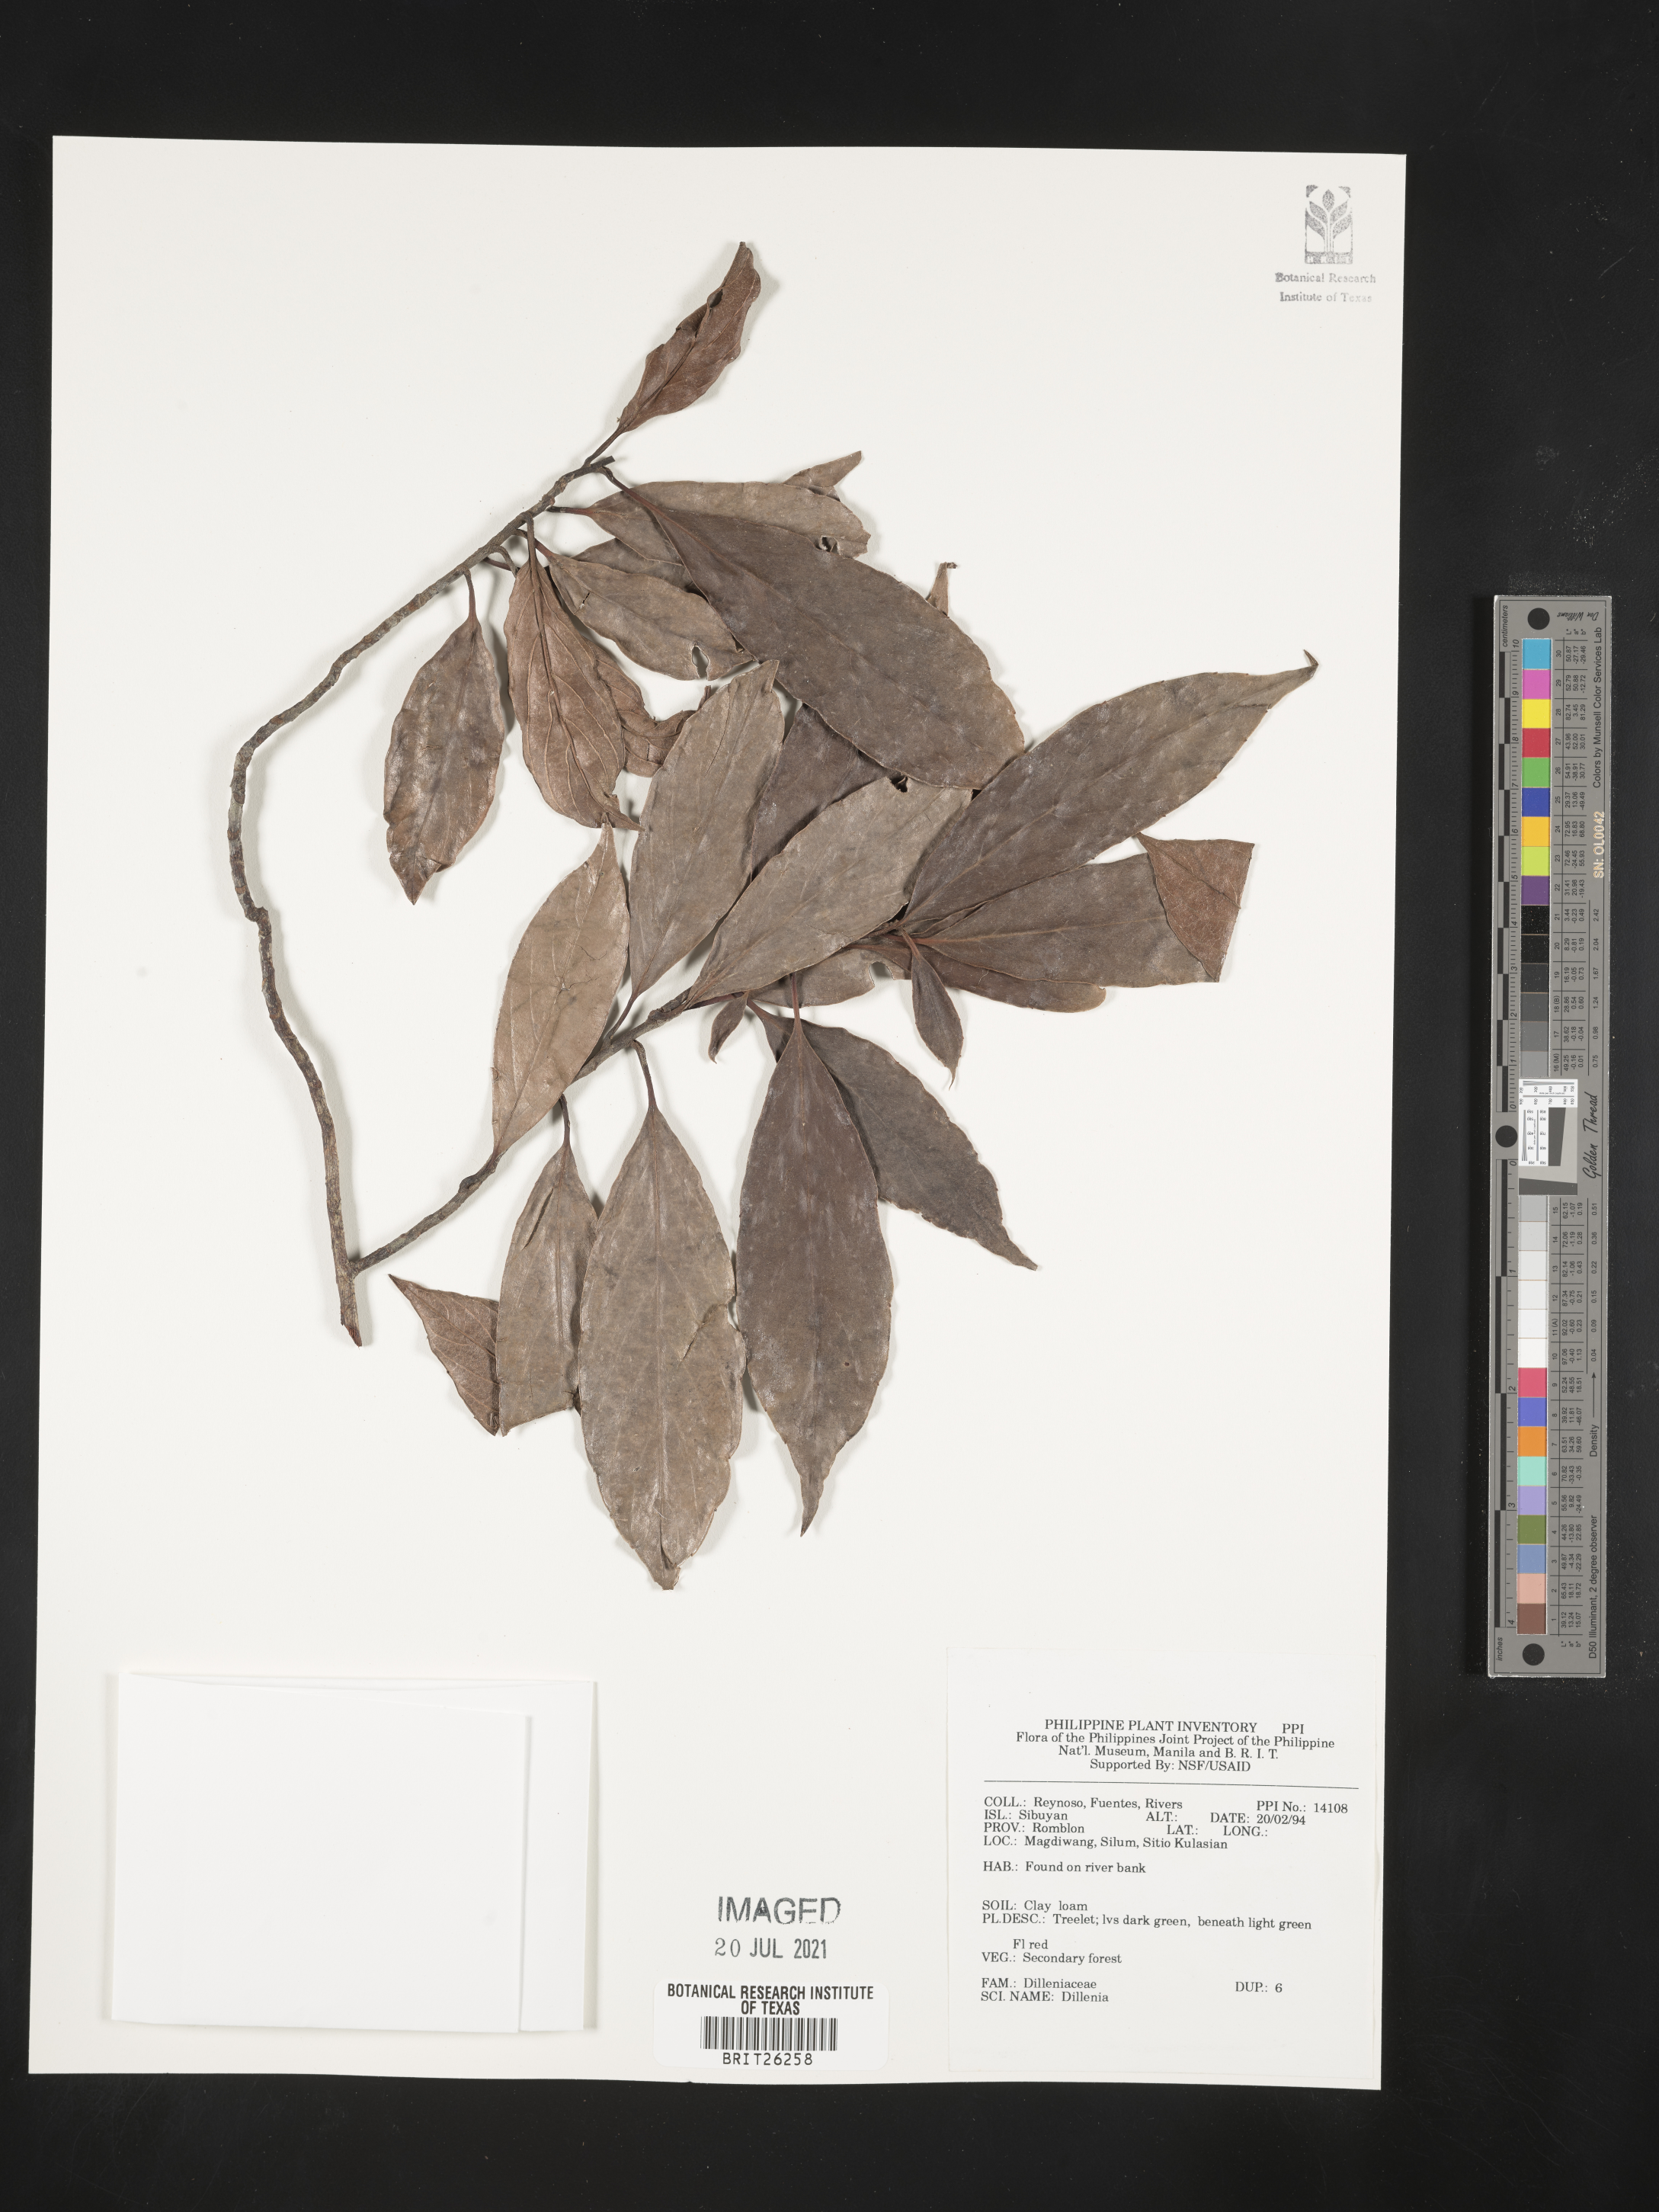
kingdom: Plantae
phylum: Tracheophyta
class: Magnoliopsida
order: Dilleniales
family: Dilleniaceae
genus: Dillenia
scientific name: Dillenia
